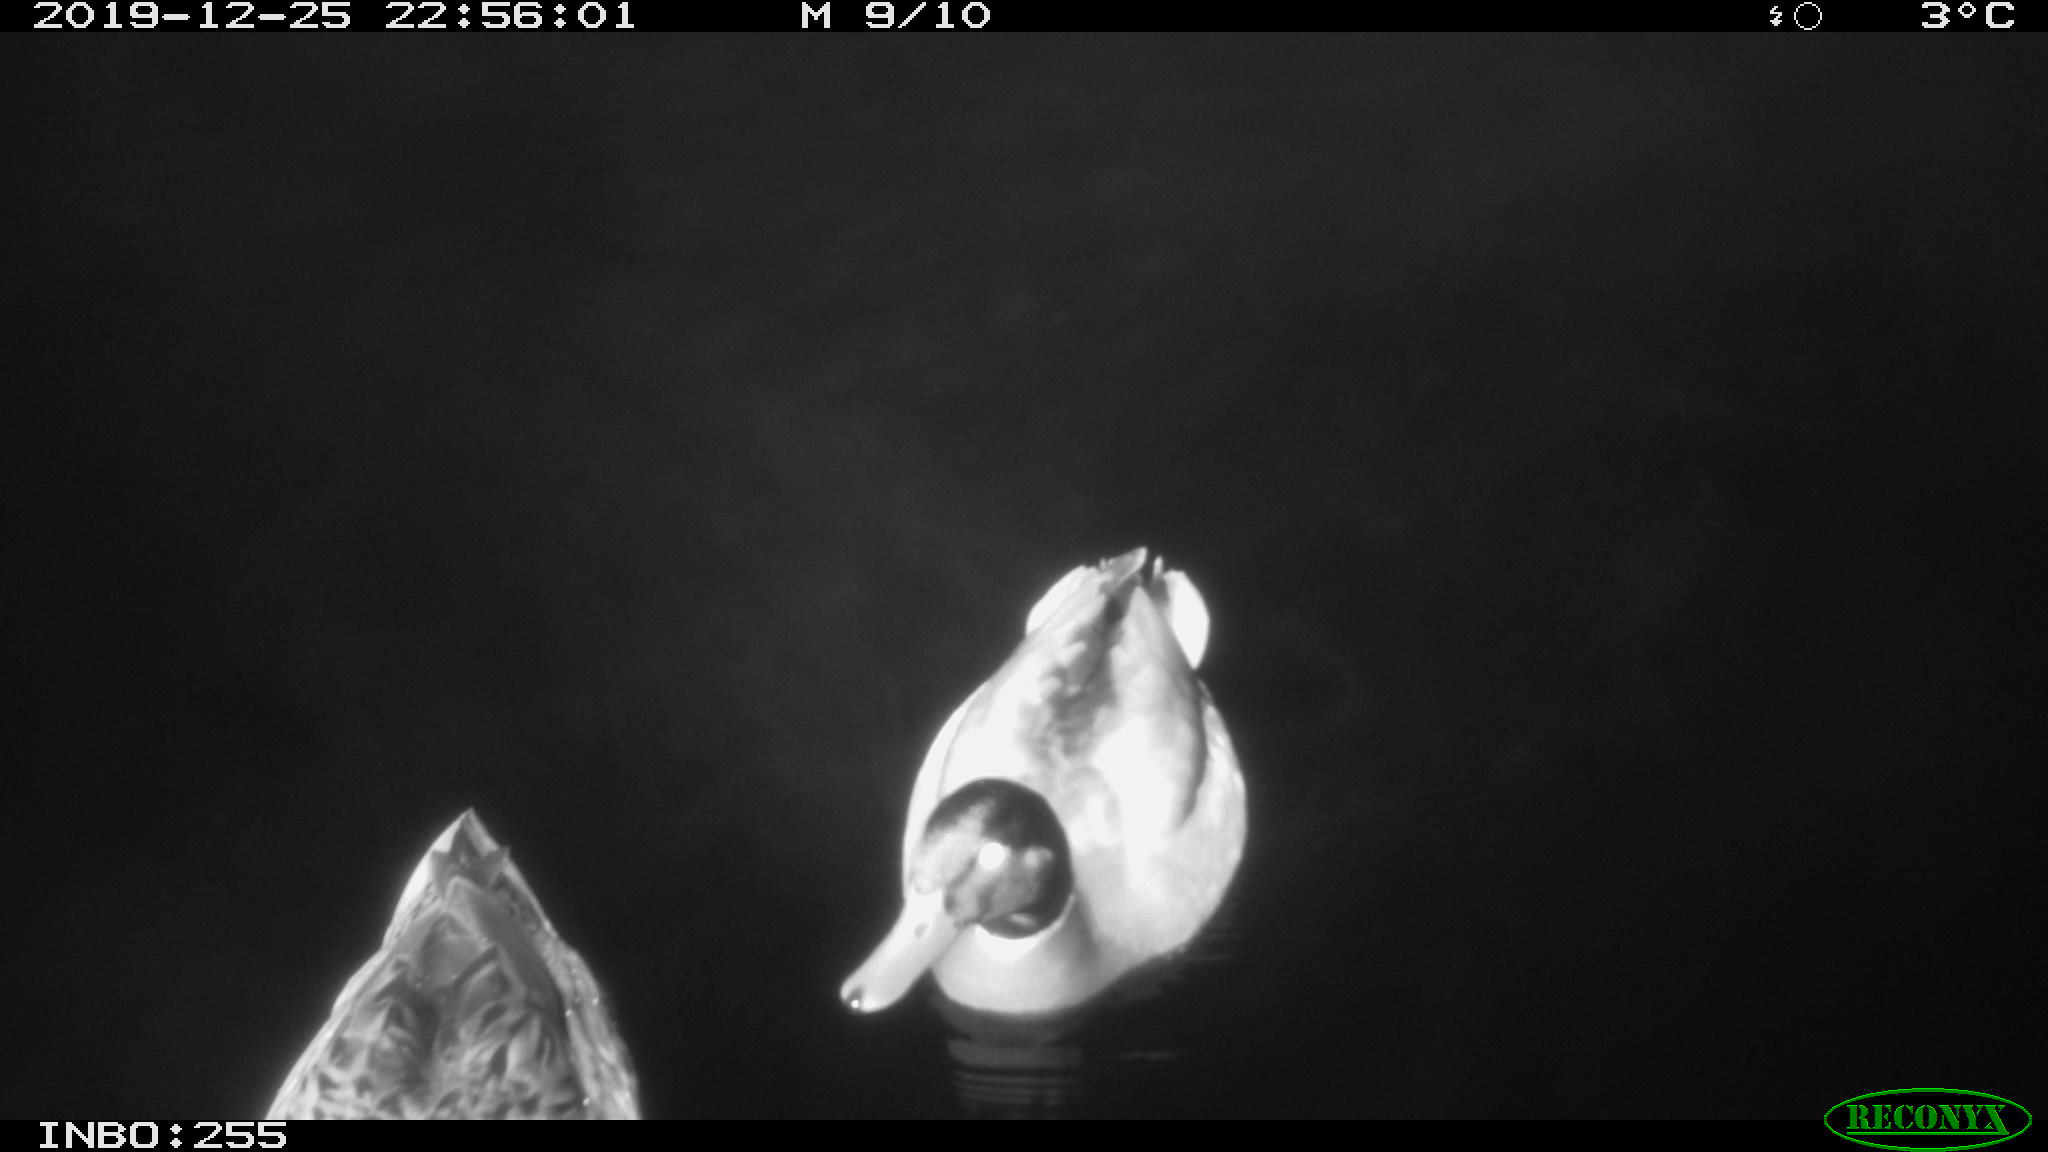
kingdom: Animalia
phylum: Chordata
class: Aves
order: Anseriformes
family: Anatidae
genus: Anas
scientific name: Anas platyrhynchos
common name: Mallard
